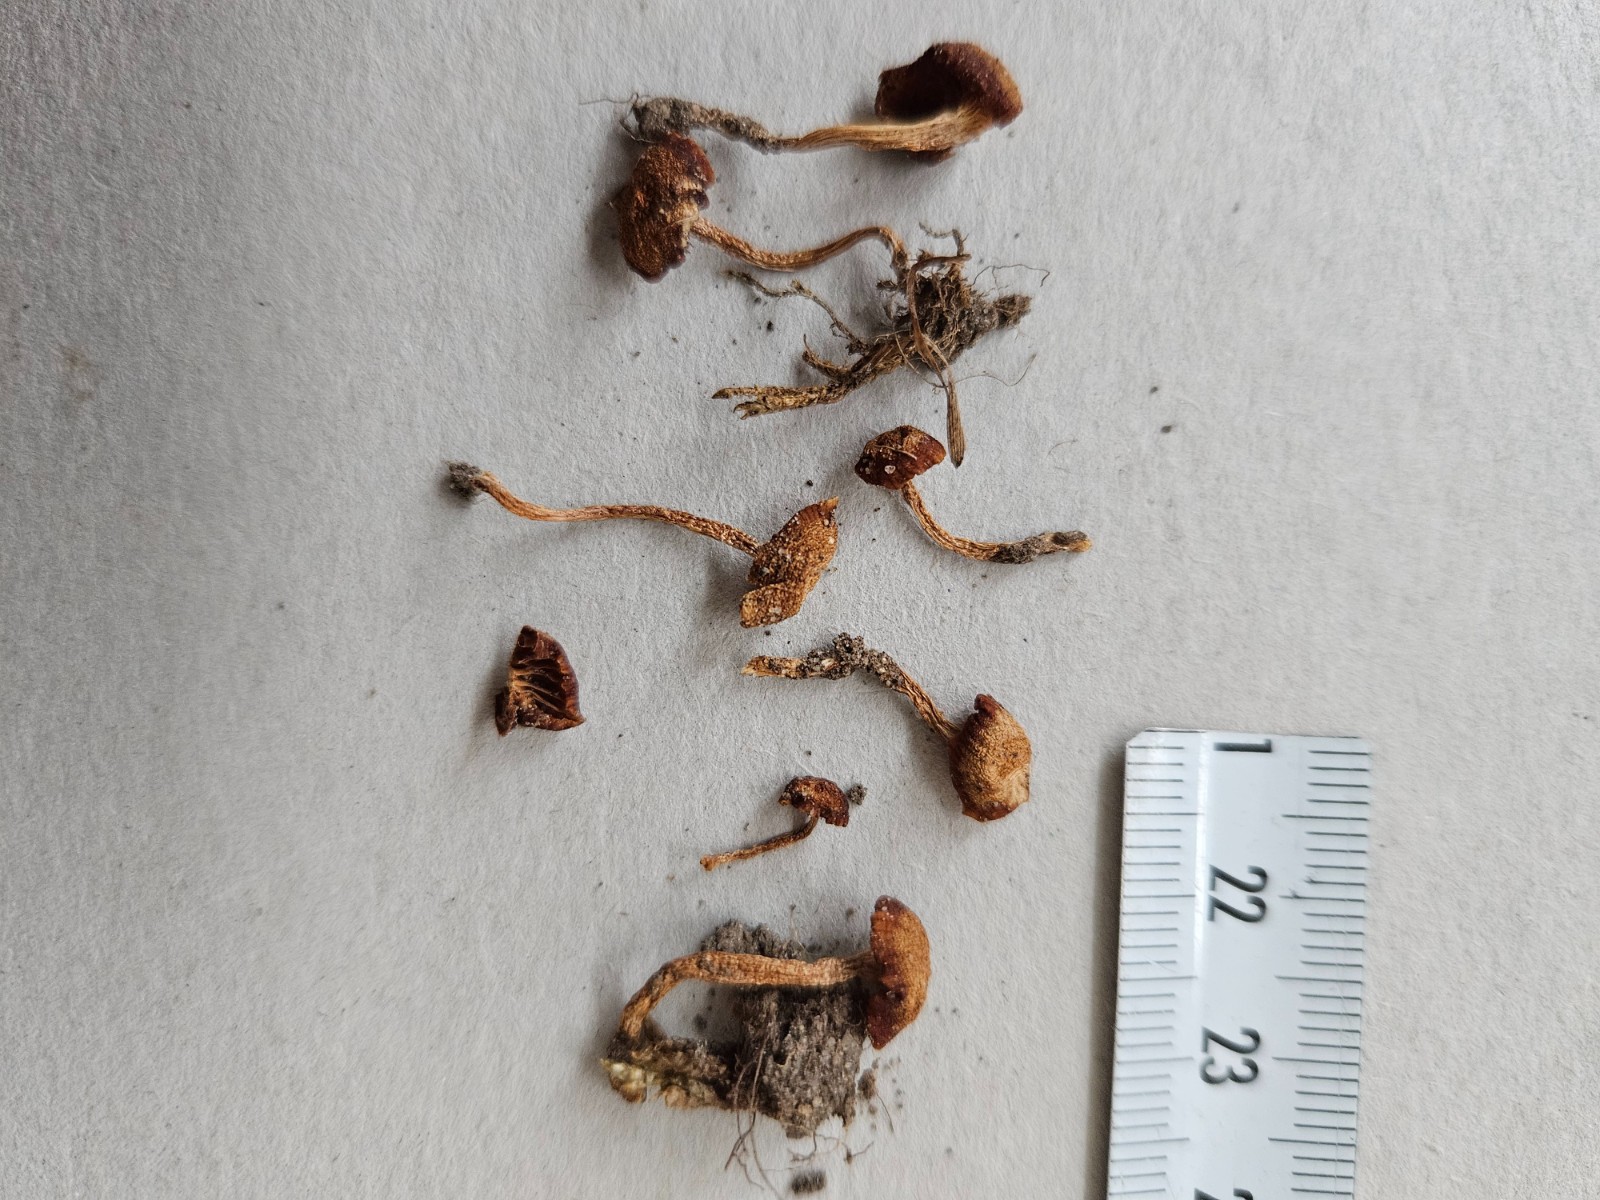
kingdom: Fungi
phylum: Basidiomycota
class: Agaricomycetes
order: Agaricales
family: Hygrophoraceae
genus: Cuphophyllus
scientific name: Cuphophyllus virgineus
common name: isabella-vokshat
